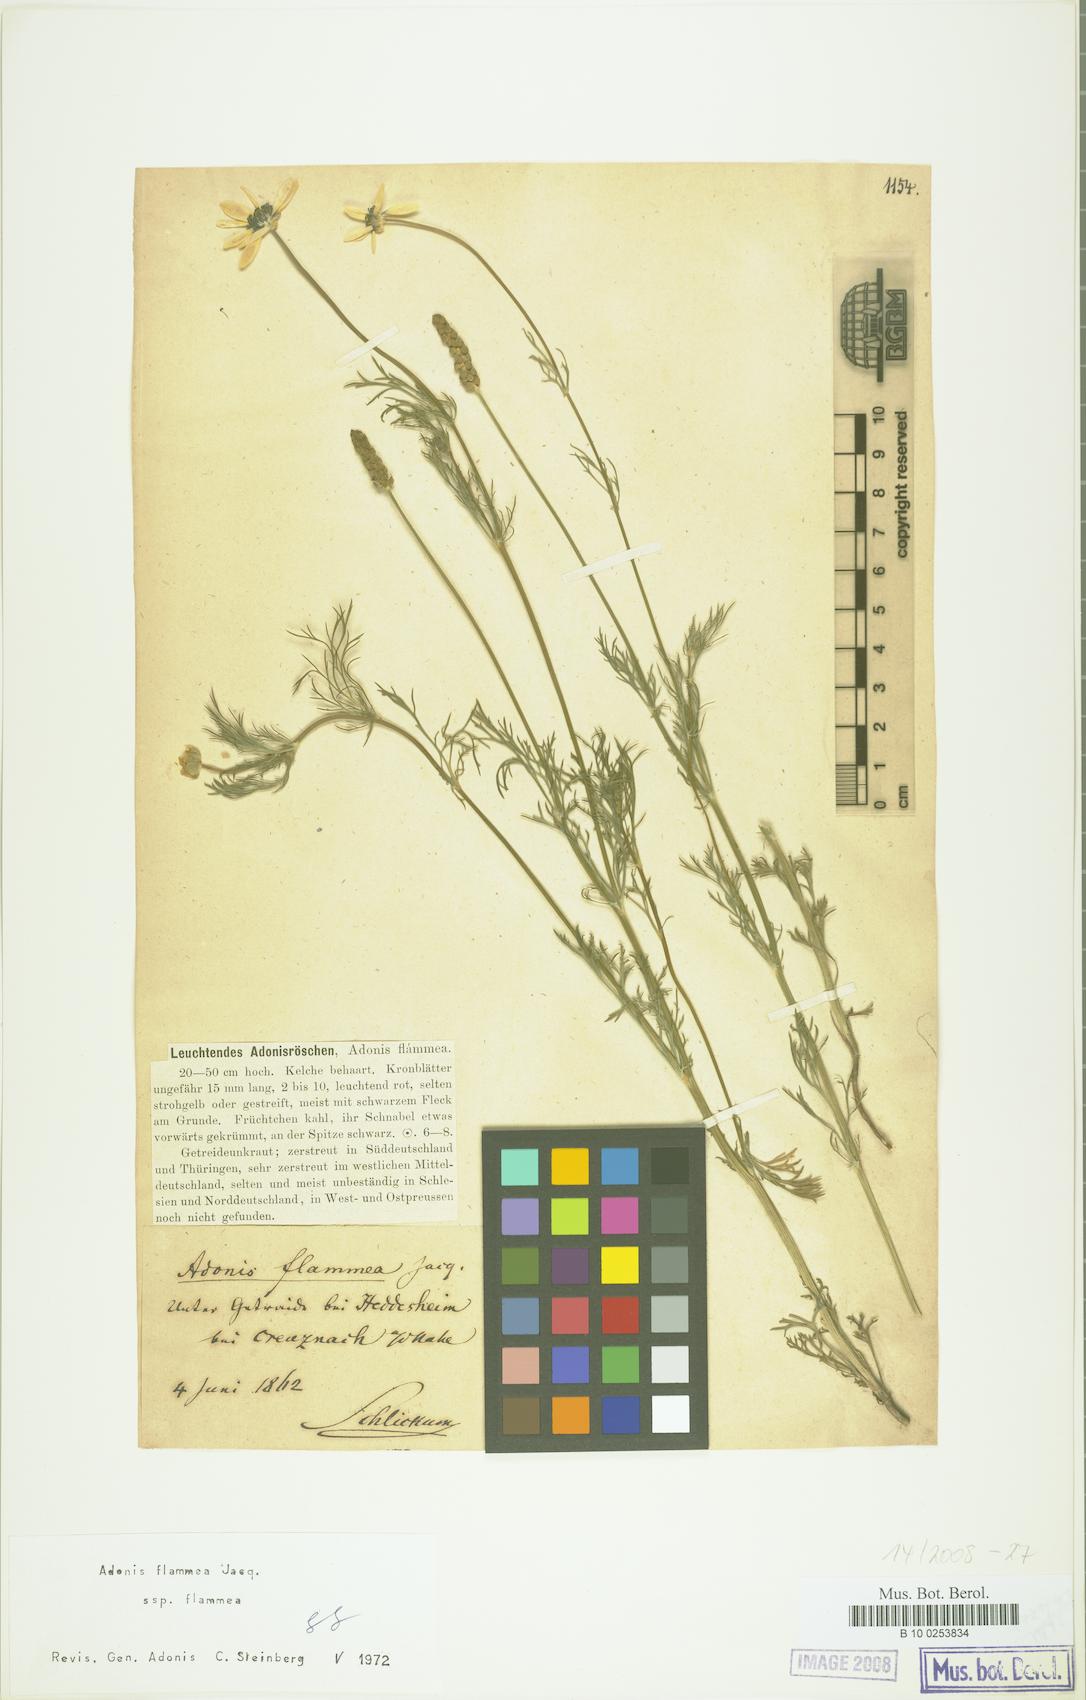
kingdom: Plantae
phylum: Tracheophyta
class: Magnoliopsida
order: Ranunculales
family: Ranunculaceae
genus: Adonis
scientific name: Adonis flammea
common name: Large pheasant's-eye
